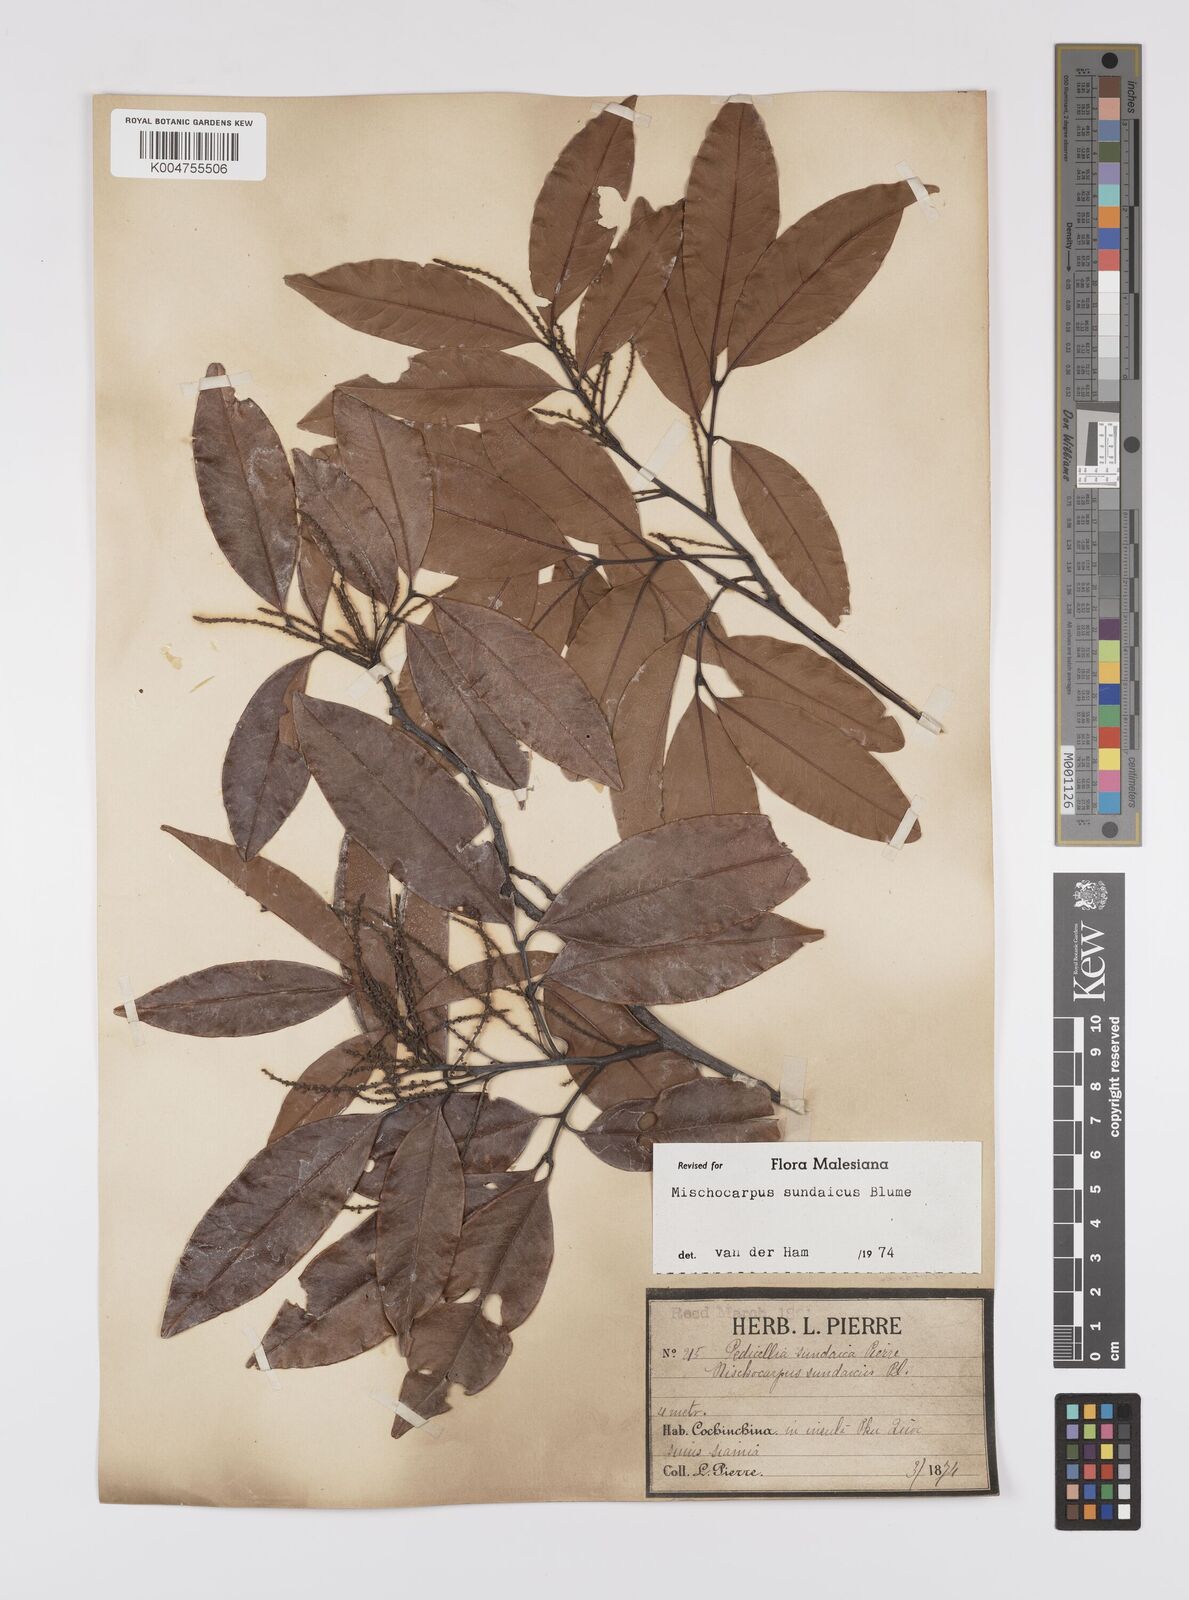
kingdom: Plantae
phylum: Tracheophyta
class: Magnoliopsida
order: Sapindales
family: Sapindaceae
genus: Mischocarpus
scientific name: Mischocarpus sundaicus
